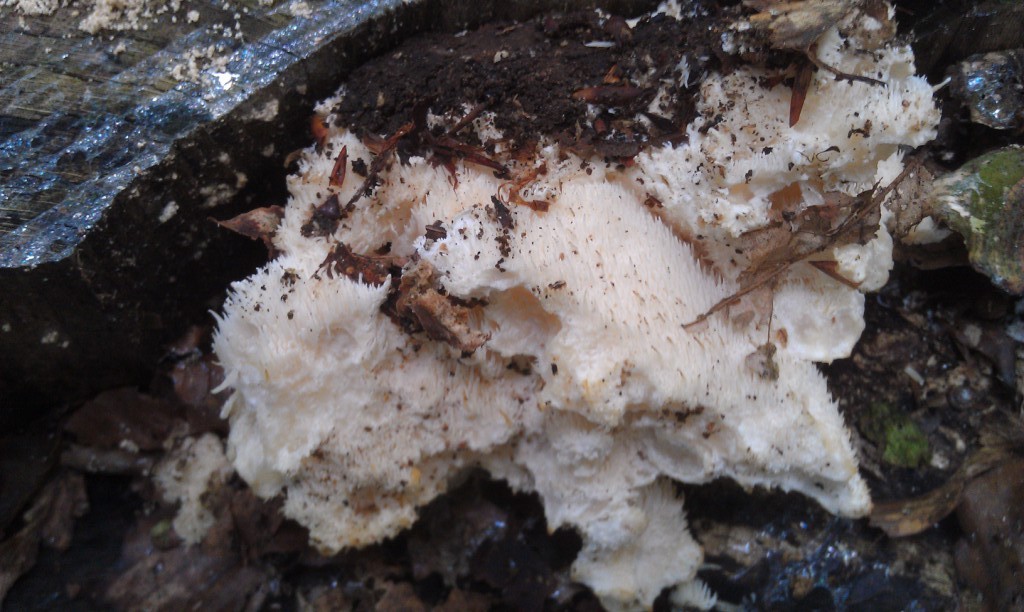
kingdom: Fungi
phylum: Basidiomycota
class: Agaricomycetes
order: Russulales
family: Hericiaceae
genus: Hericium
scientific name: Hericium cirrhatum
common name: børstepigsvamp
